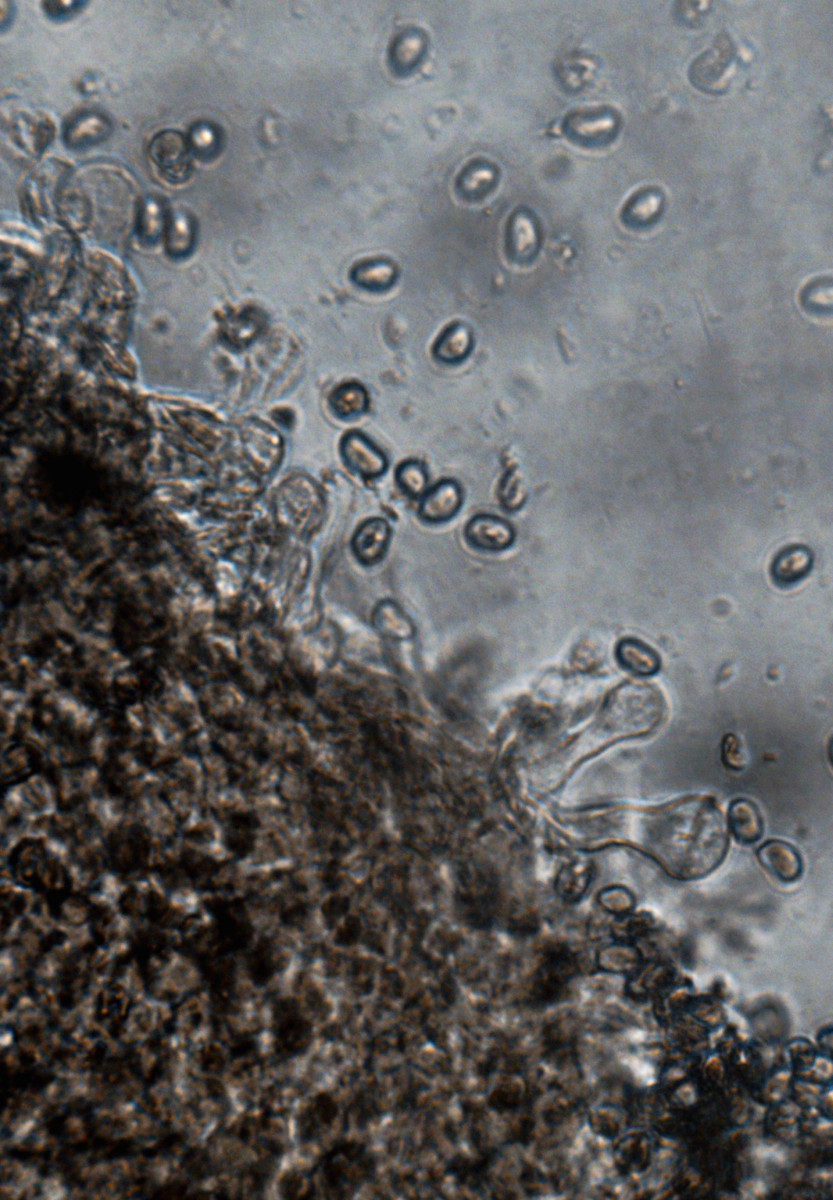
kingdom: Fungi
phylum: Basidiomycota
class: Agaricomycetes
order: Agaricales
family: Crepidotaceae
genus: Simocybe
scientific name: Simocybe sumptuosa
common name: stor skyggehat
